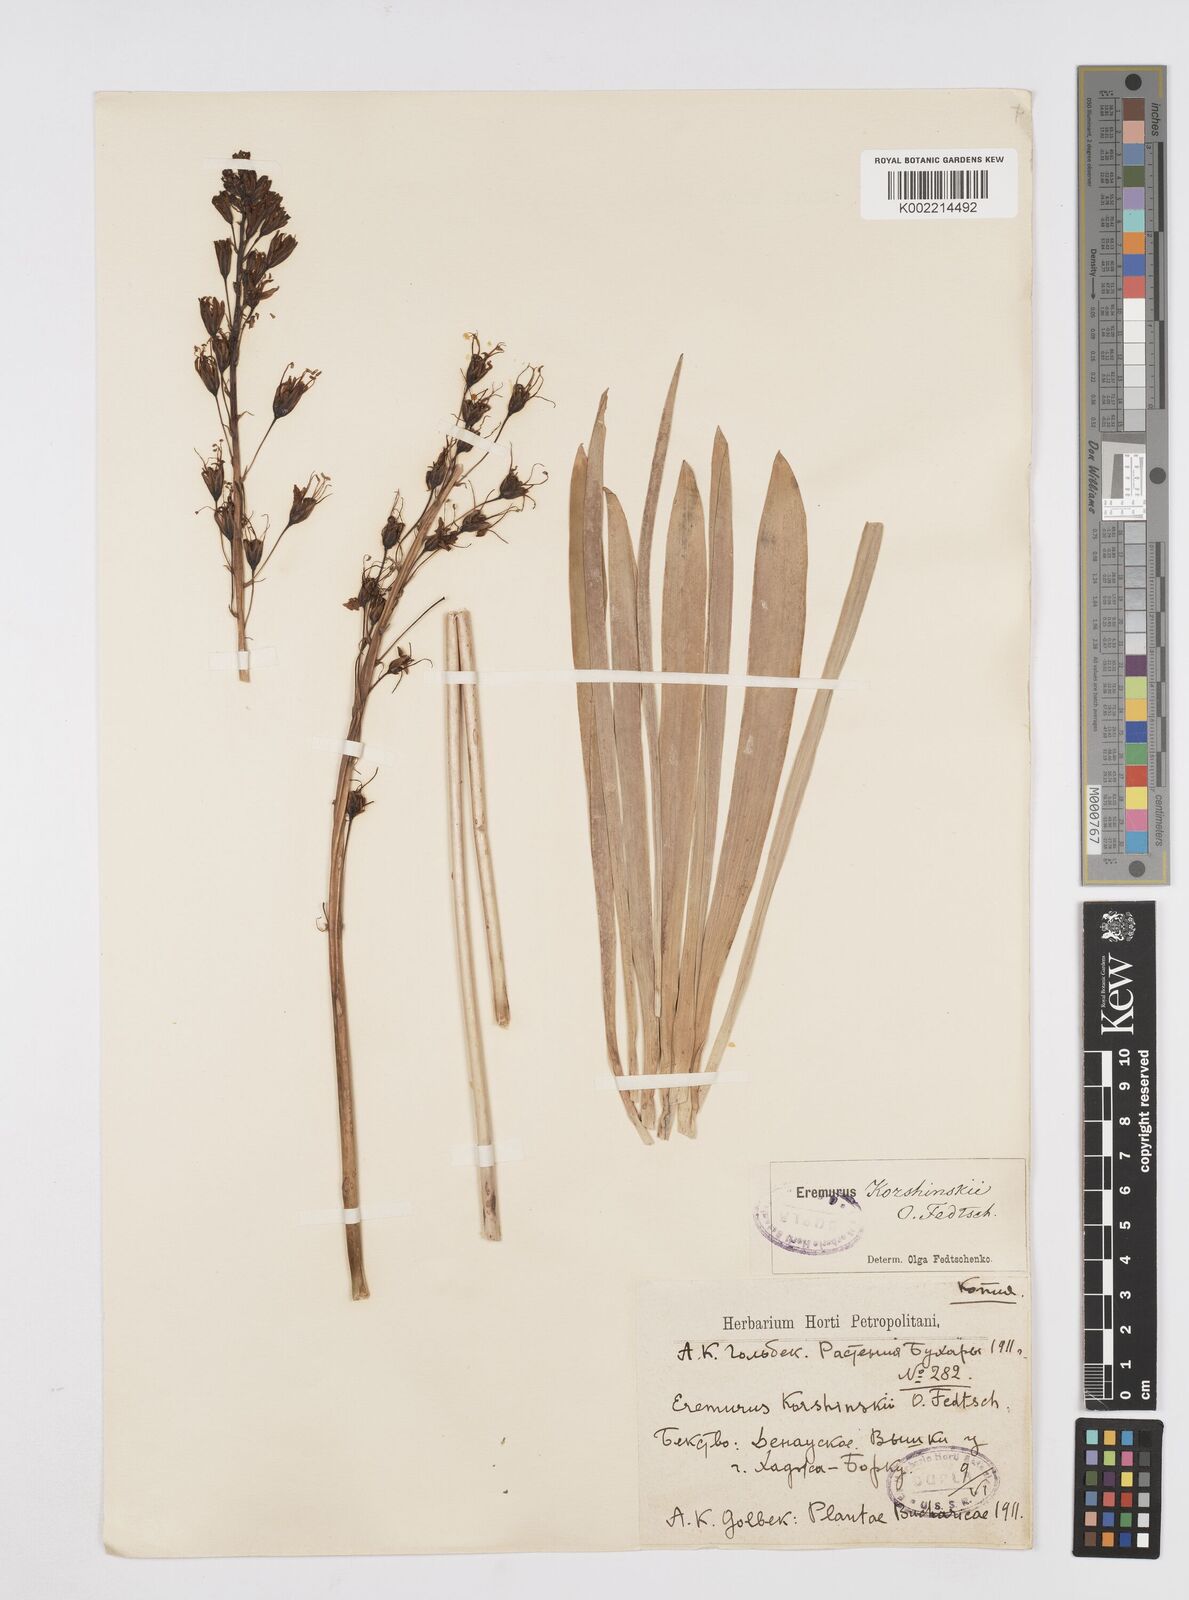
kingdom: Plantae
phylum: Tracheophyta
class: Liliopsida
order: Asparagales
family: Asphodelaceae
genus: Eremurus
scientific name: Eremurus korshinskyi
